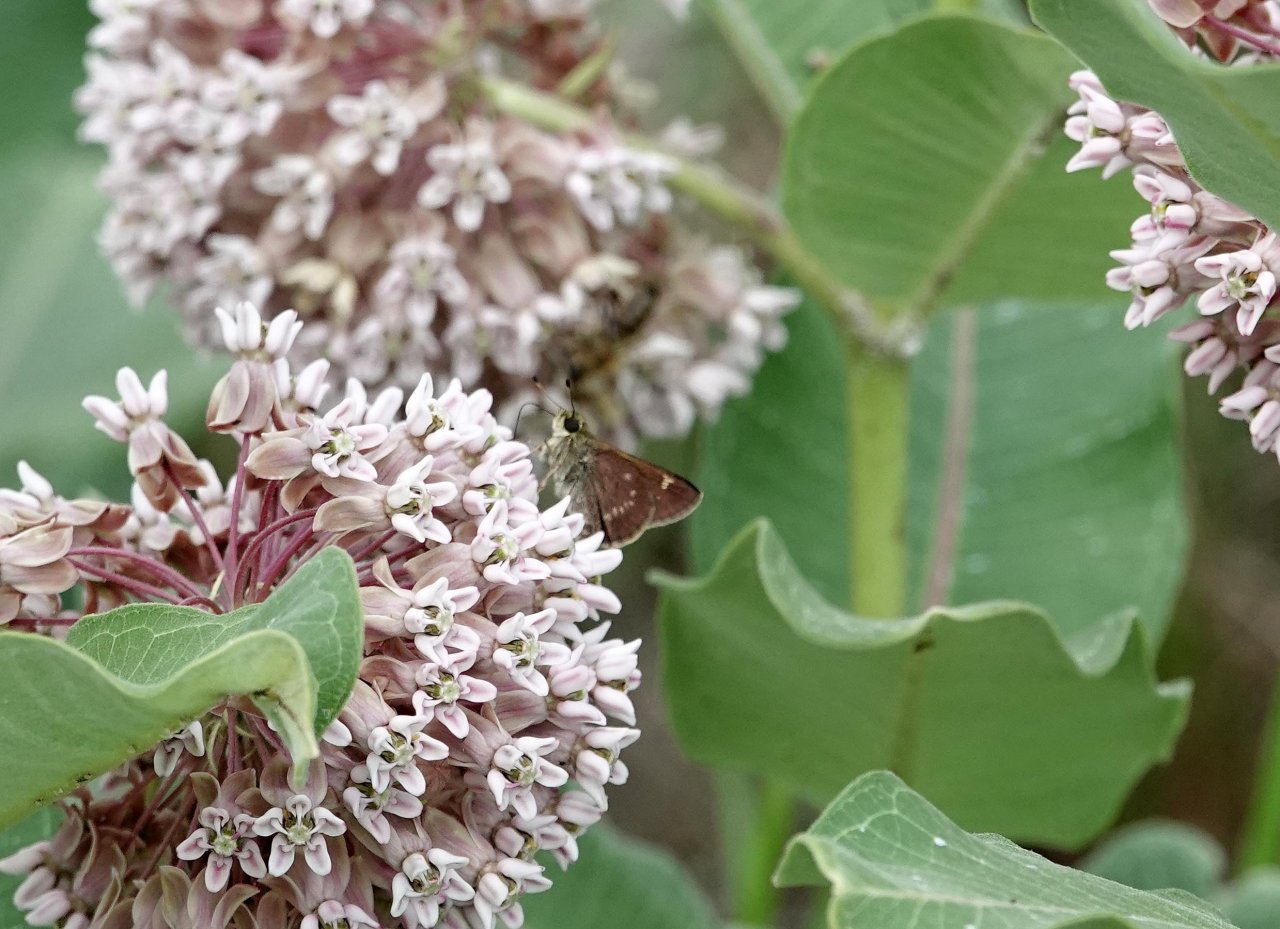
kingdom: Animalia
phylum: Arthropoda
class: Insecta
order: Lepidoptera
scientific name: Lepidoptera
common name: Butterflies
